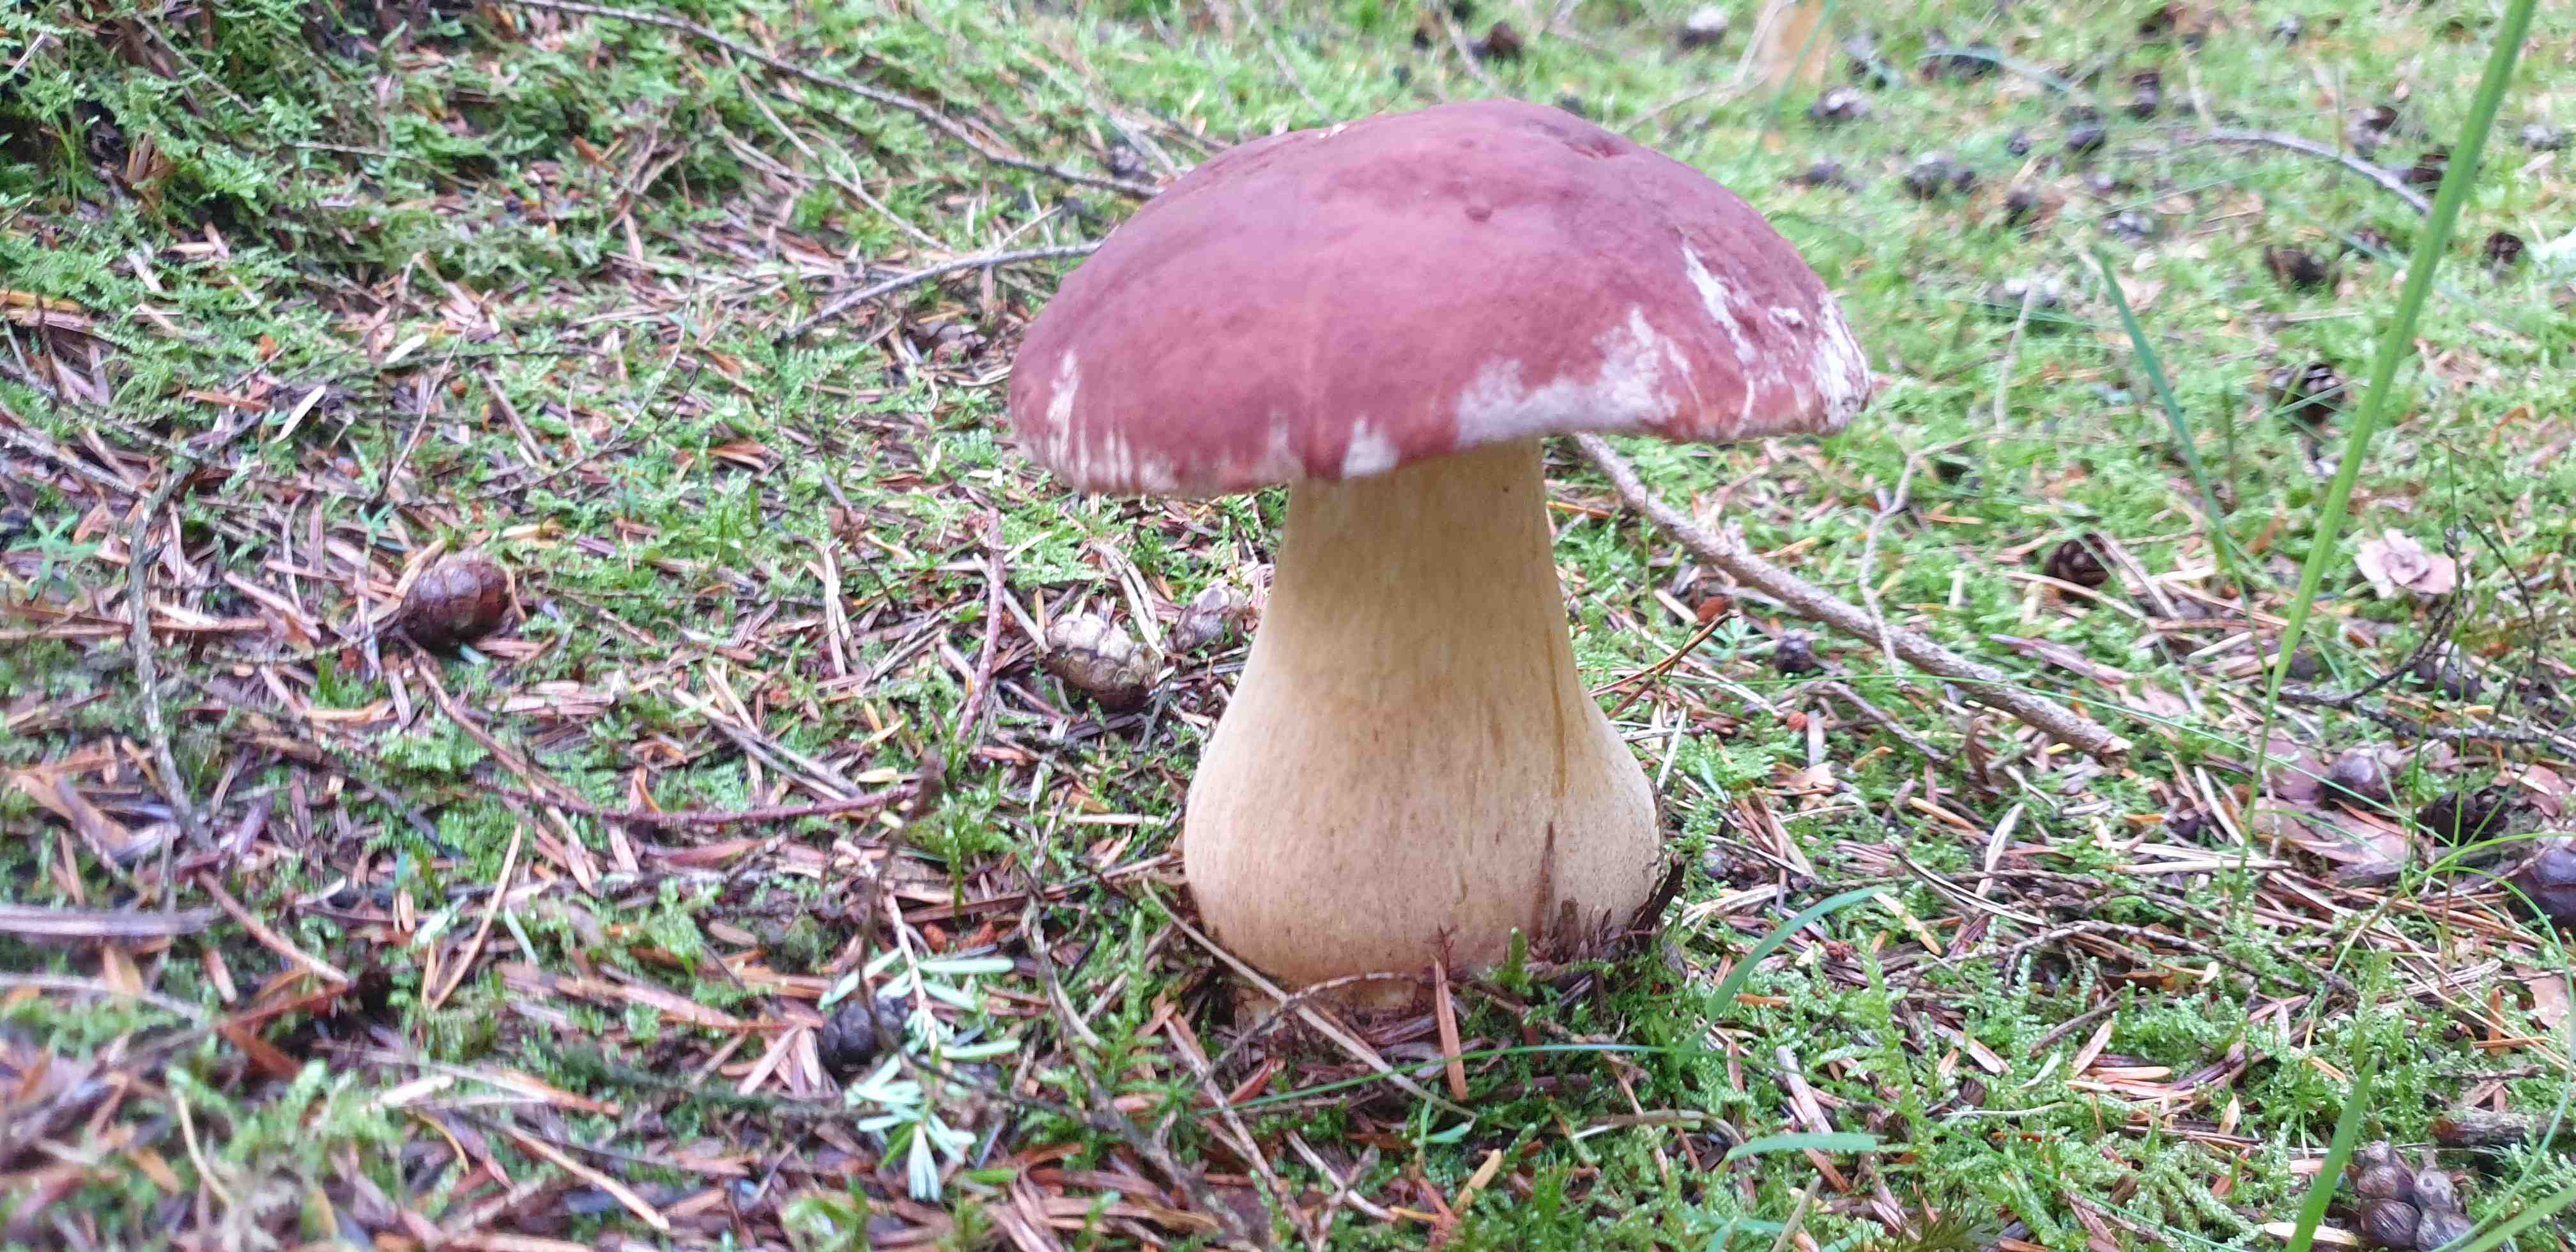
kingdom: Fungi
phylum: Basidiomycota
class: Agaricomycetes
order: Boletales
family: Boletaceae
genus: Boletus
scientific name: Boletus pinophilus
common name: rødbrun rørhat
